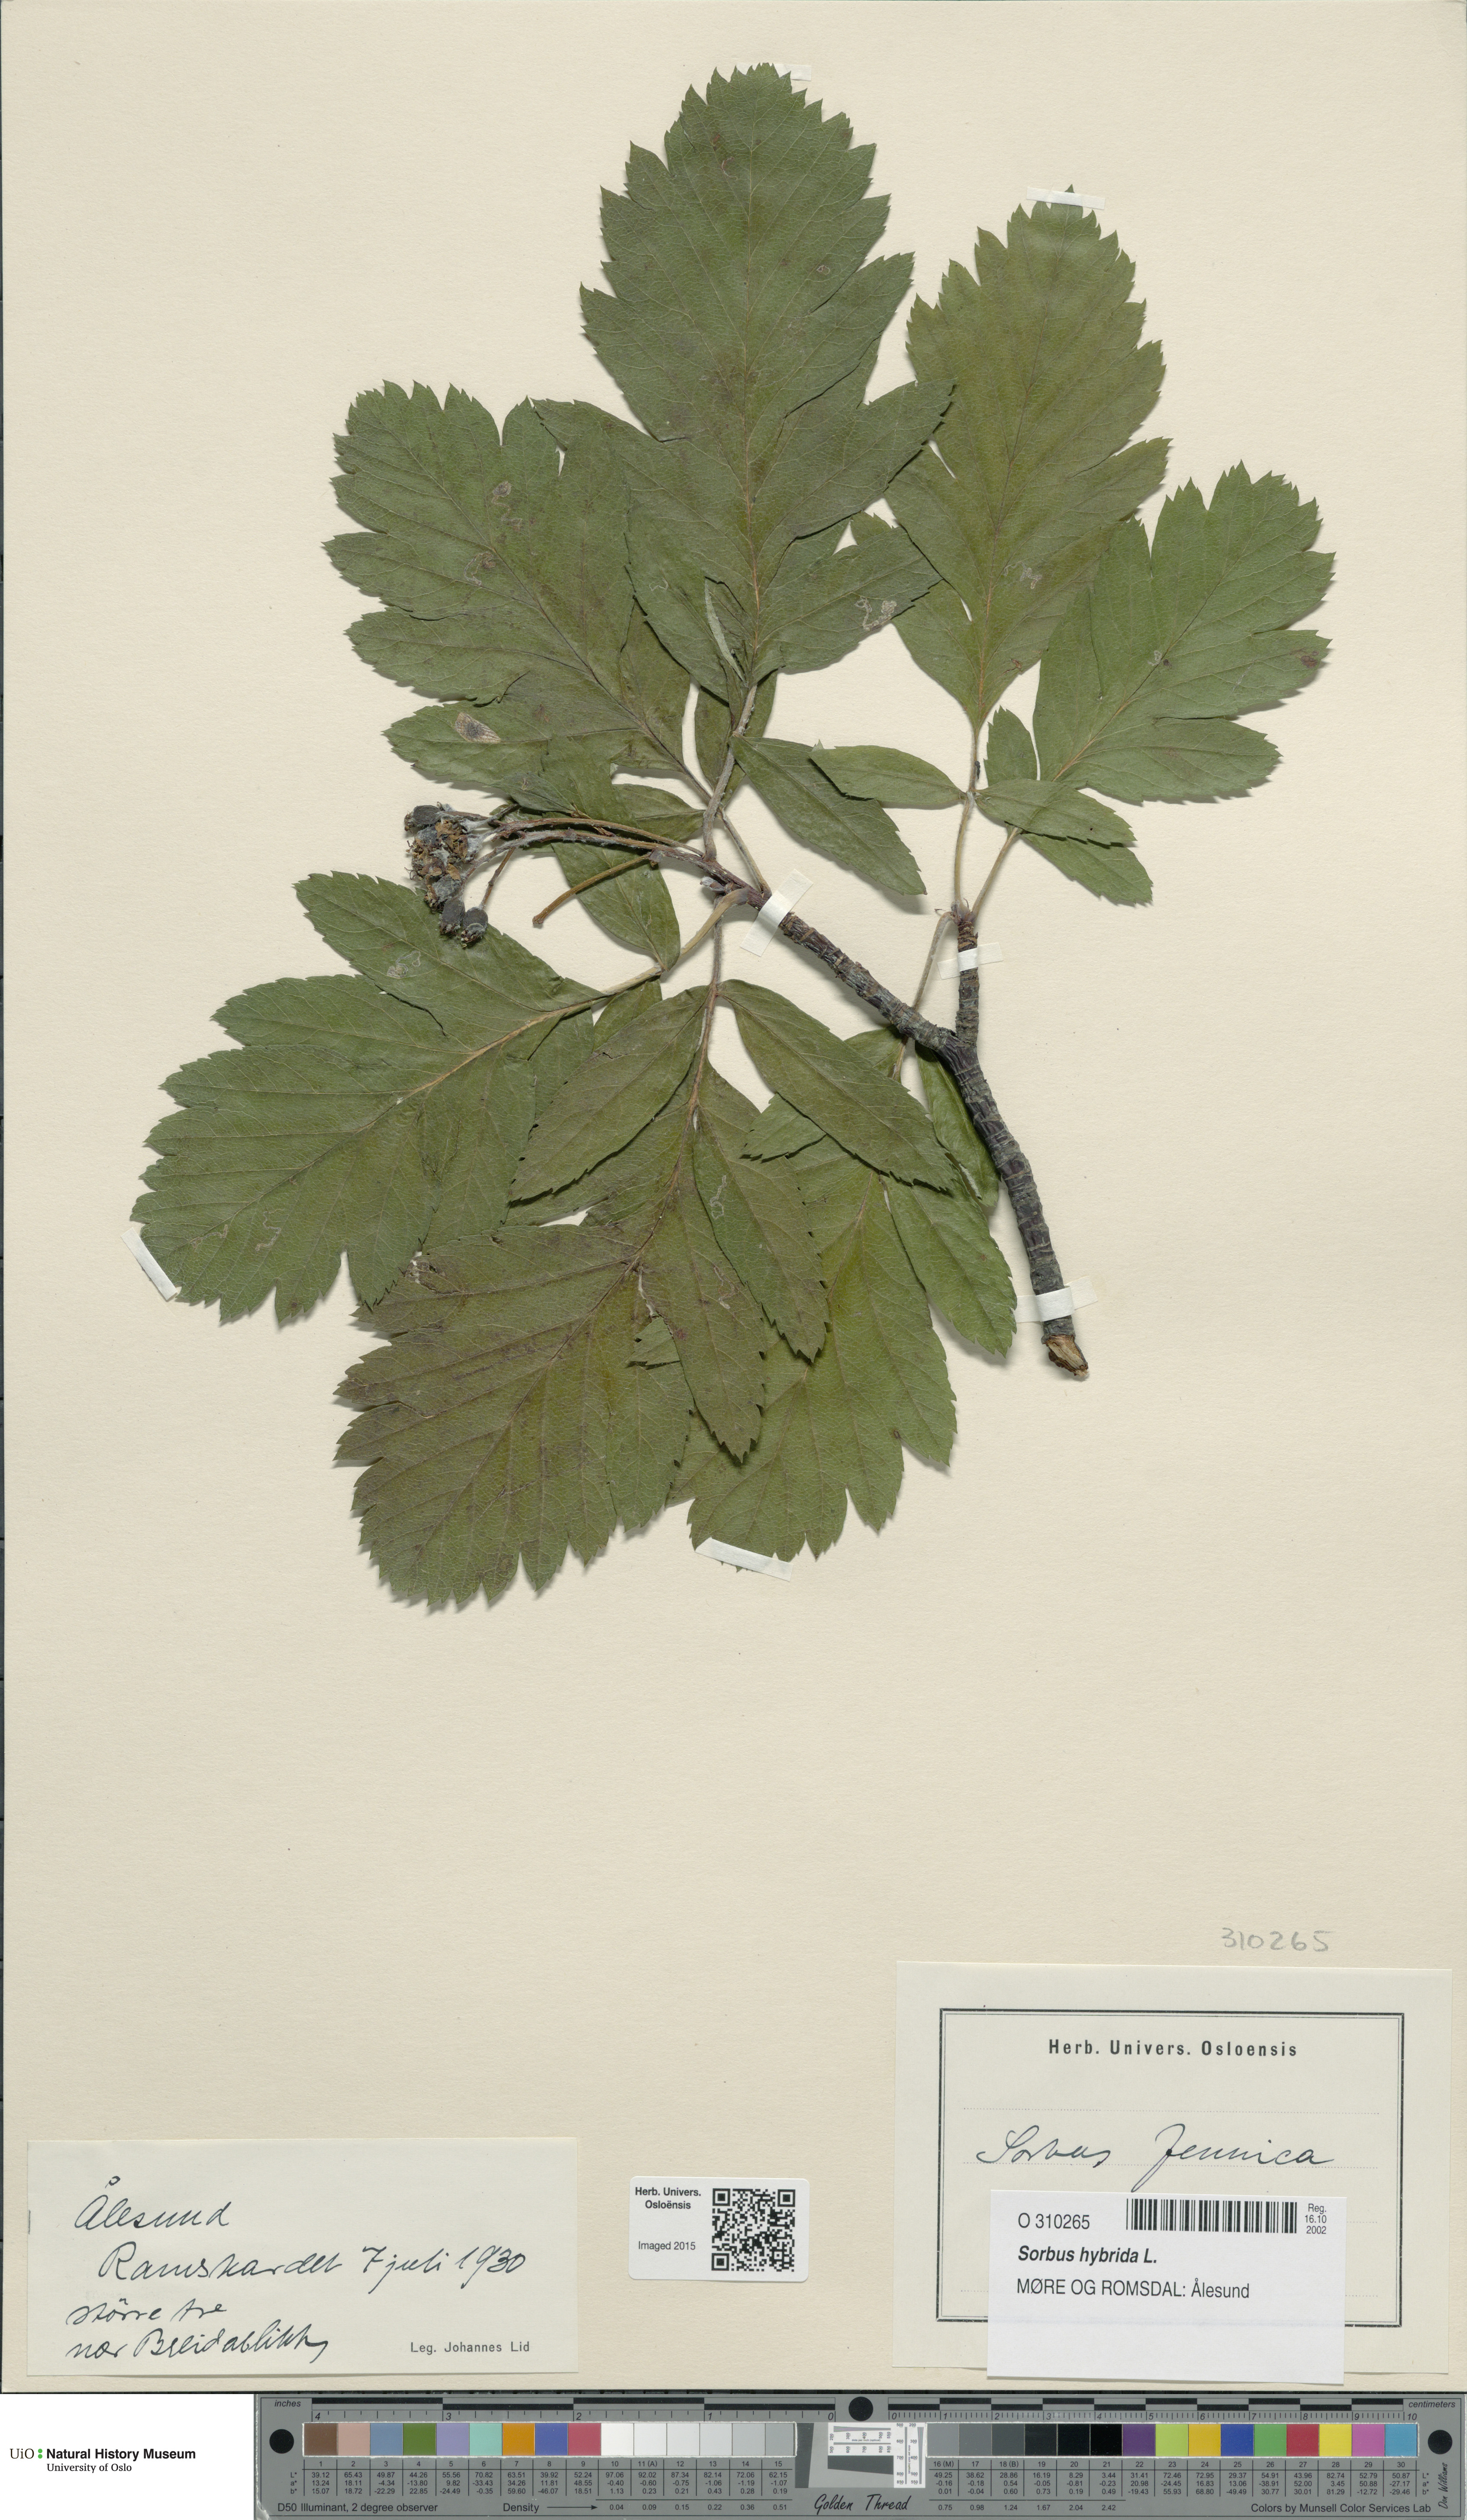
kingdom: Plantae
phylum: Tracheophyta
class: Magnoliopsida
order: Rosales
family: Rosaceae
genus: Hedlundia
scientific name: Hedlundia hybrida
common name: Swedish service-tree
